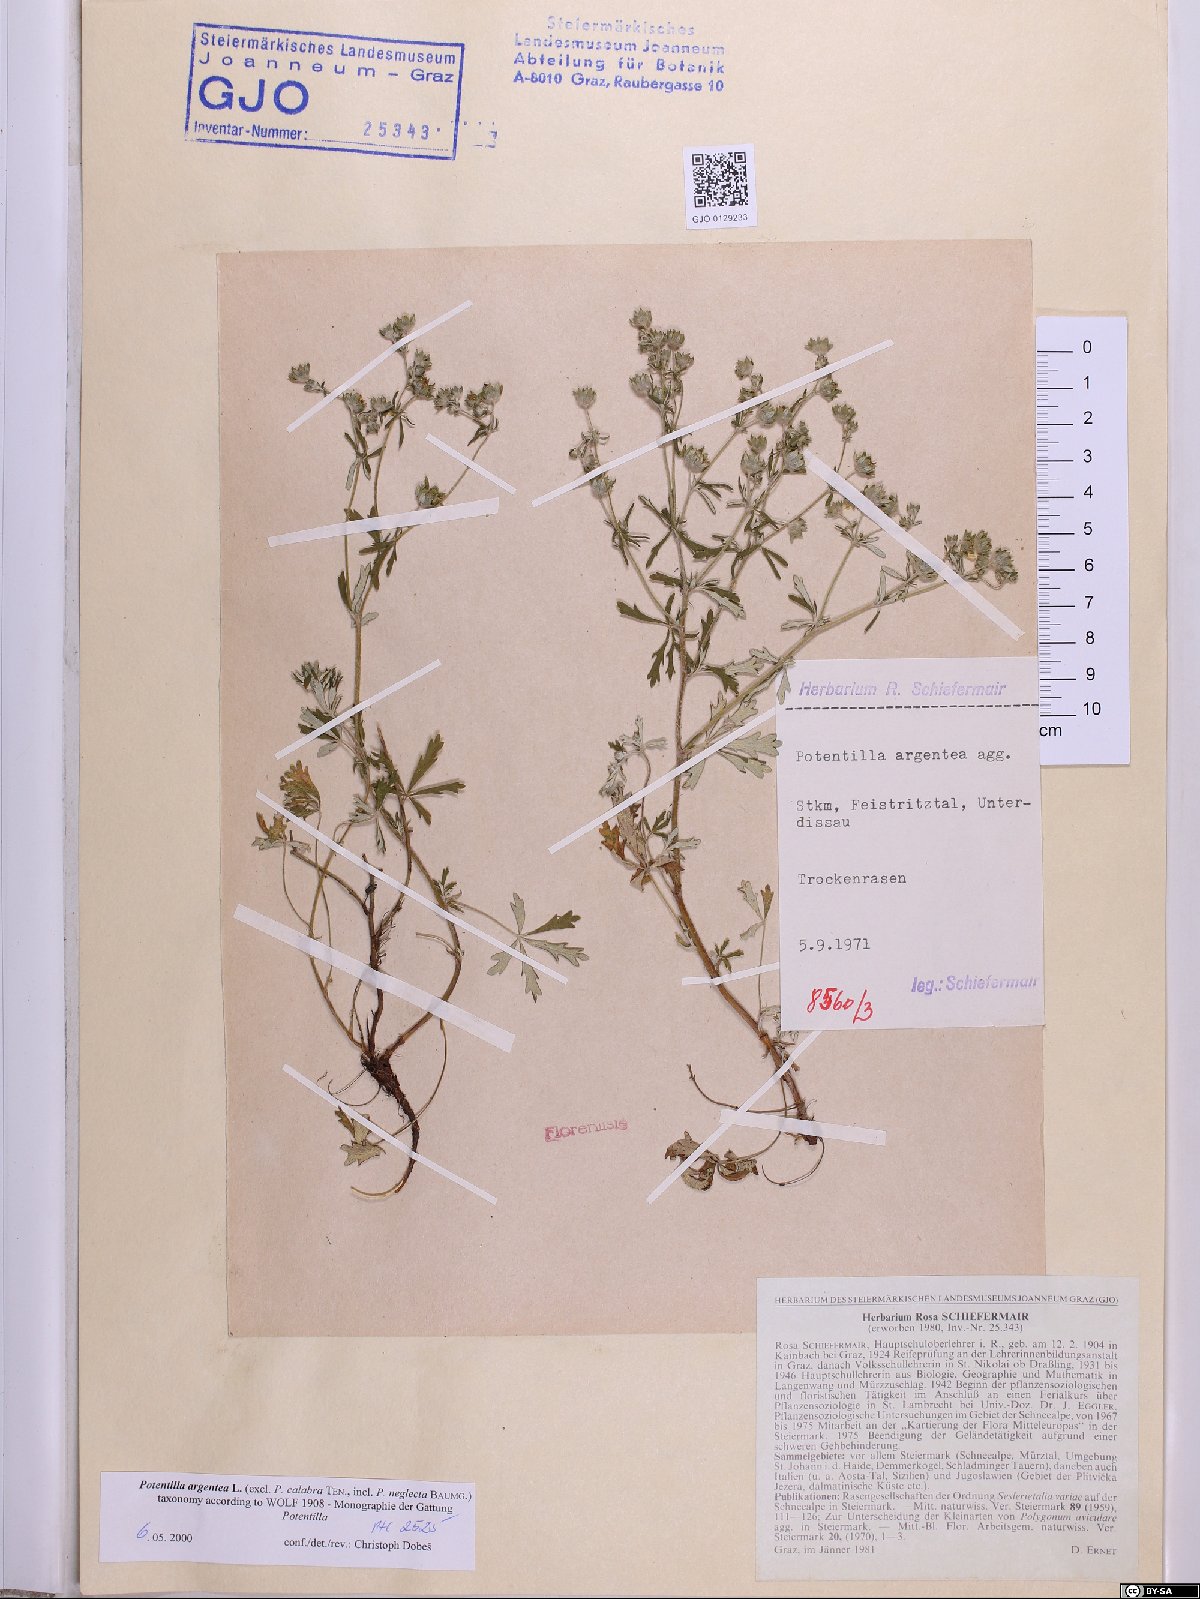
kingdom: Plantae
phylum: Tracheophyta
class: Magnoliopsida
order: Rosales
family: Rosaceae
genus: Potentilla
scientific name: Potentilla argentea
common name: Hoary cinquefoil
